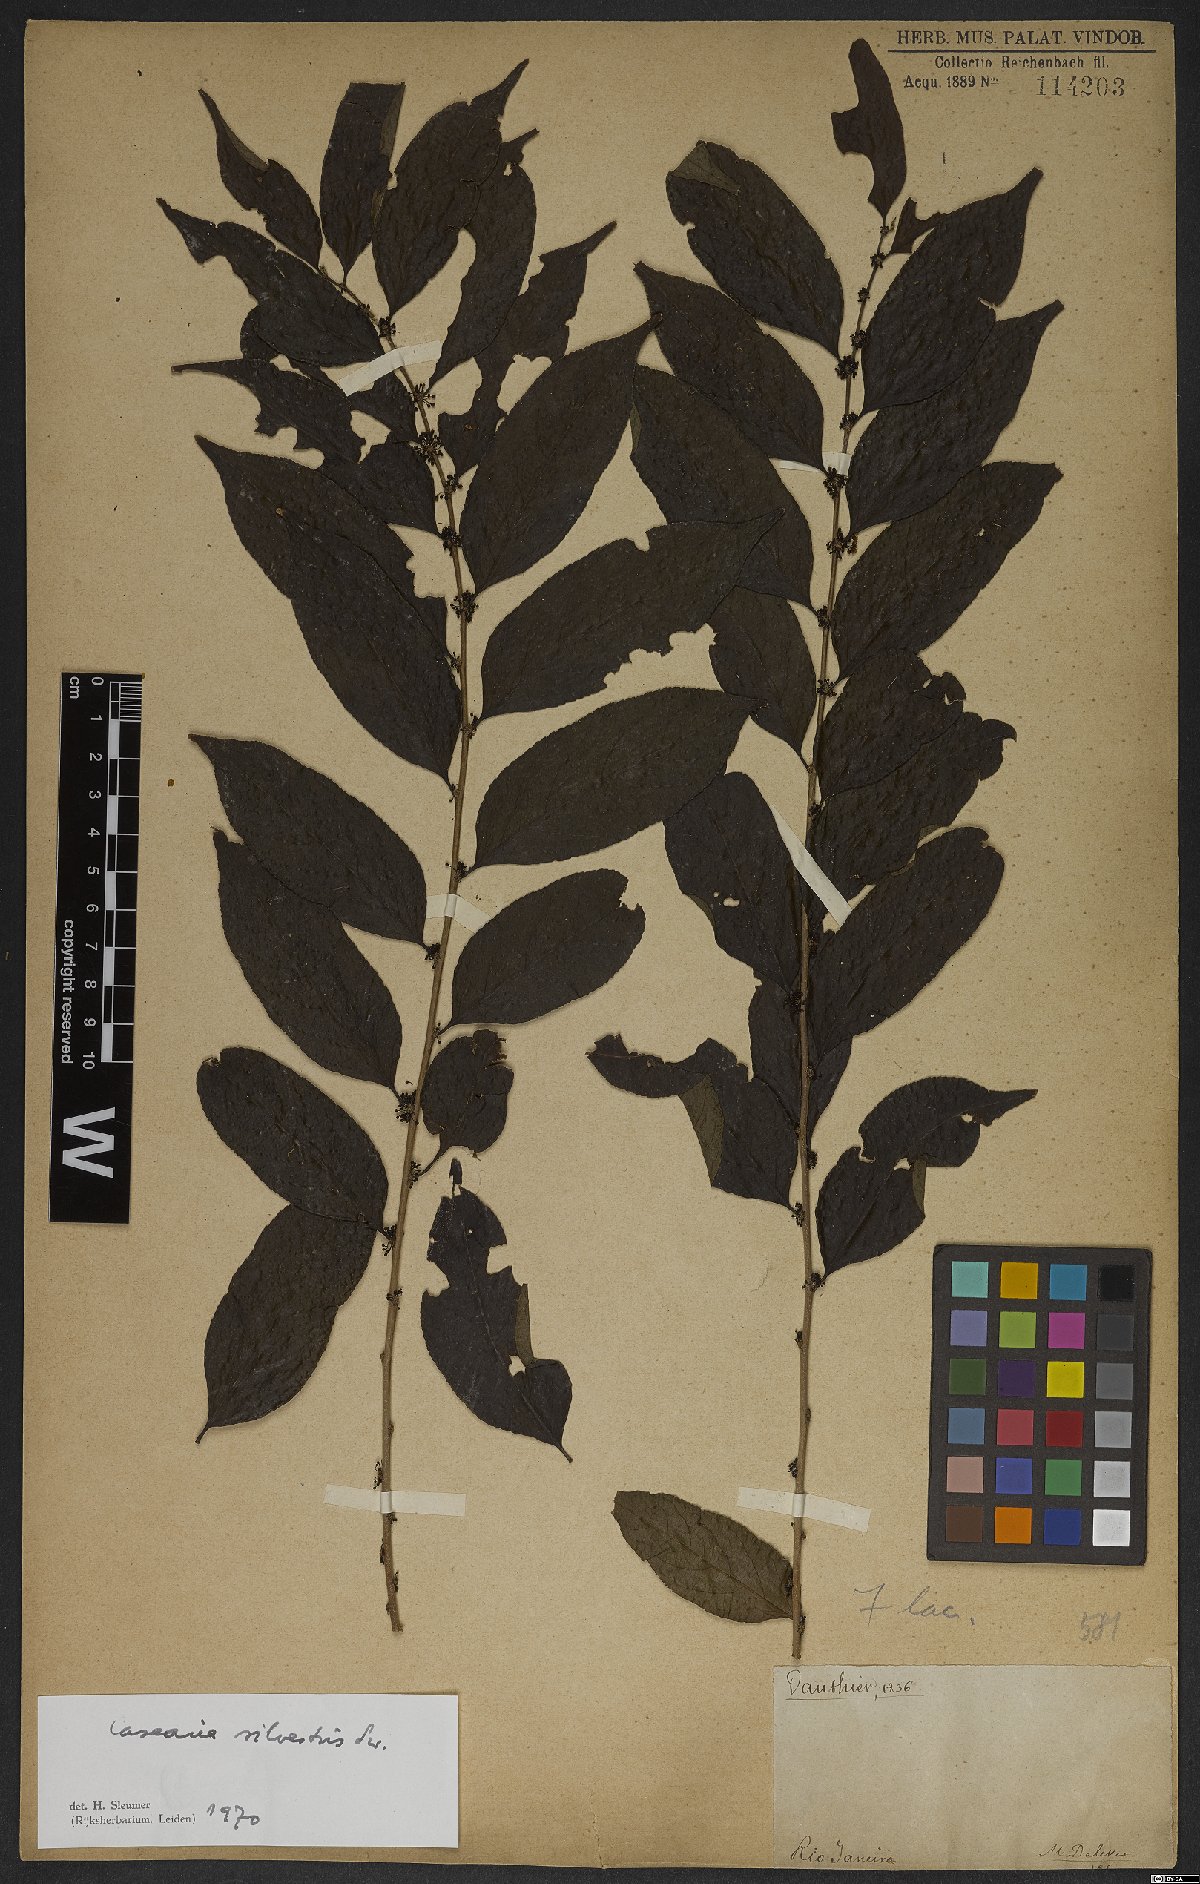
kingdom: Plantae
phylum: Tracheophyta
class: Magnoliopsida
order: Malpighiales
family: Salicaceae
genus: Casearia
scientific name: Casearia sylvestris
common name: Wild sage
